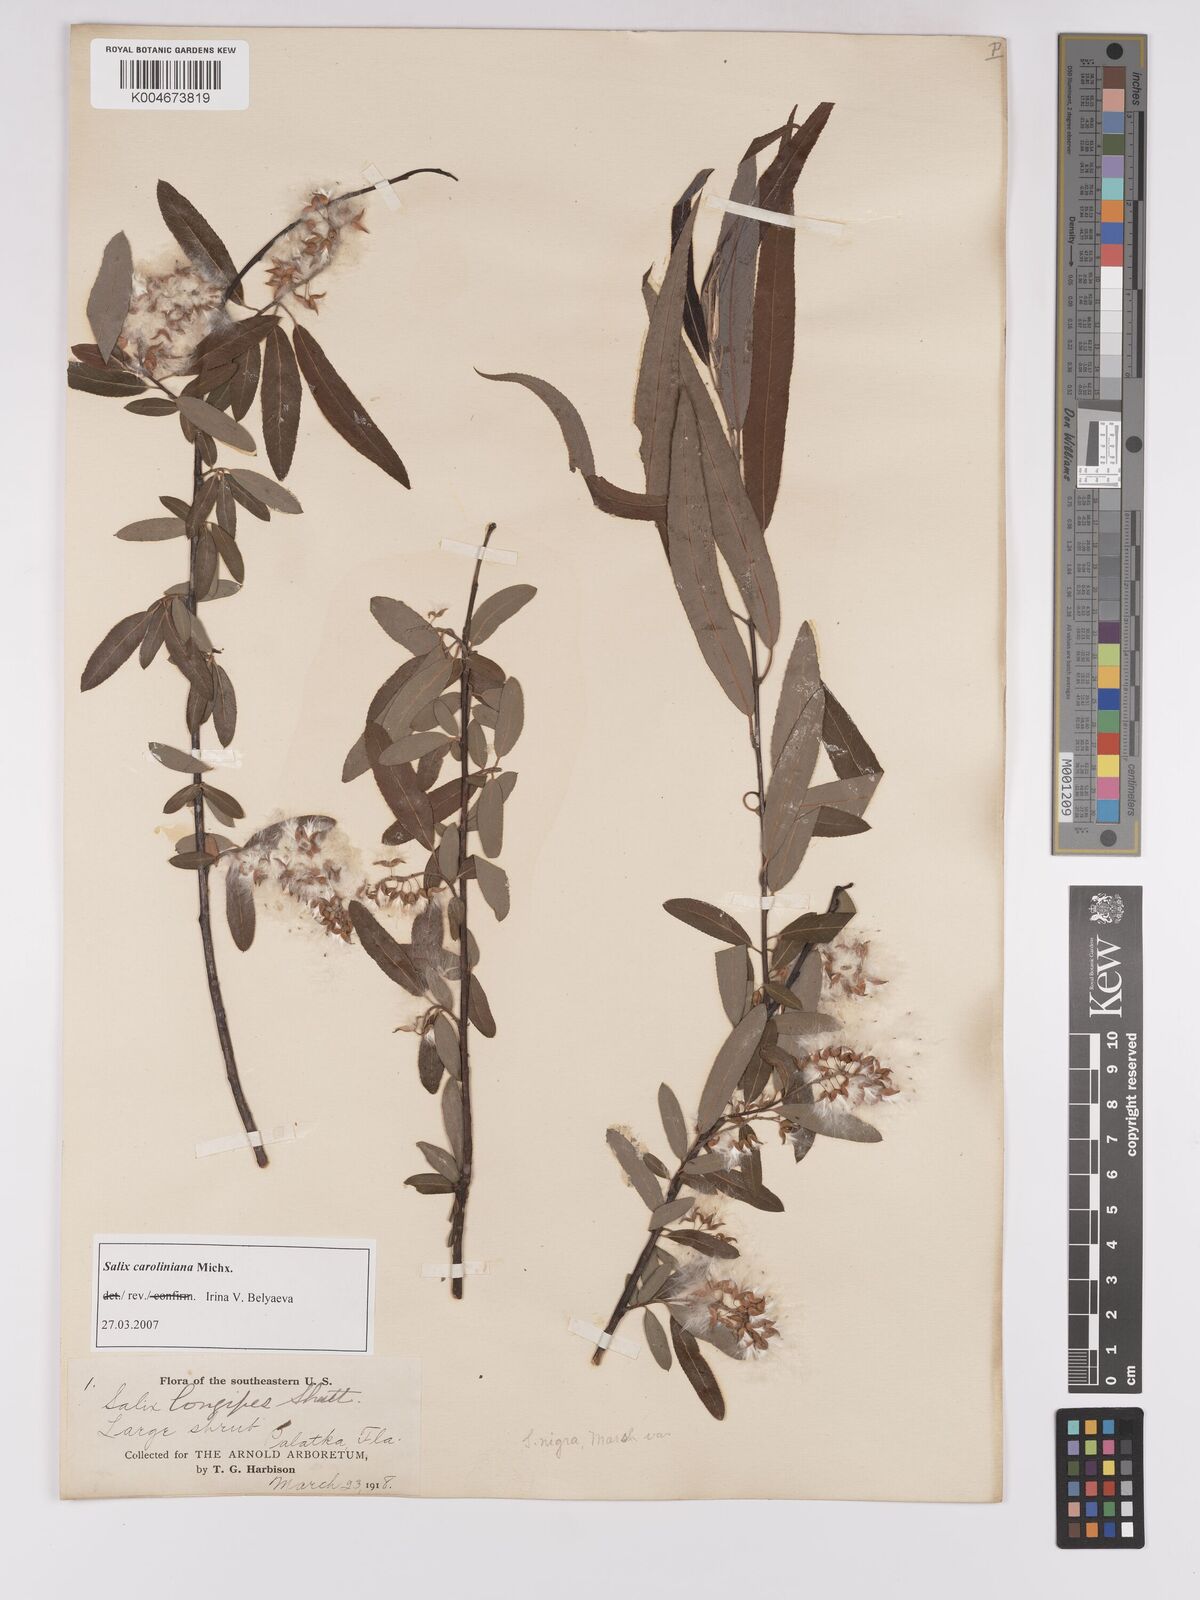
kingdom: Plantae
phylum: Tracheophyta
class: Magnoliopsida
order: Malpighiales
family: Salicaceae
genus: Salix
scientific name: Salix caroliniana
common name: Carolina willow
